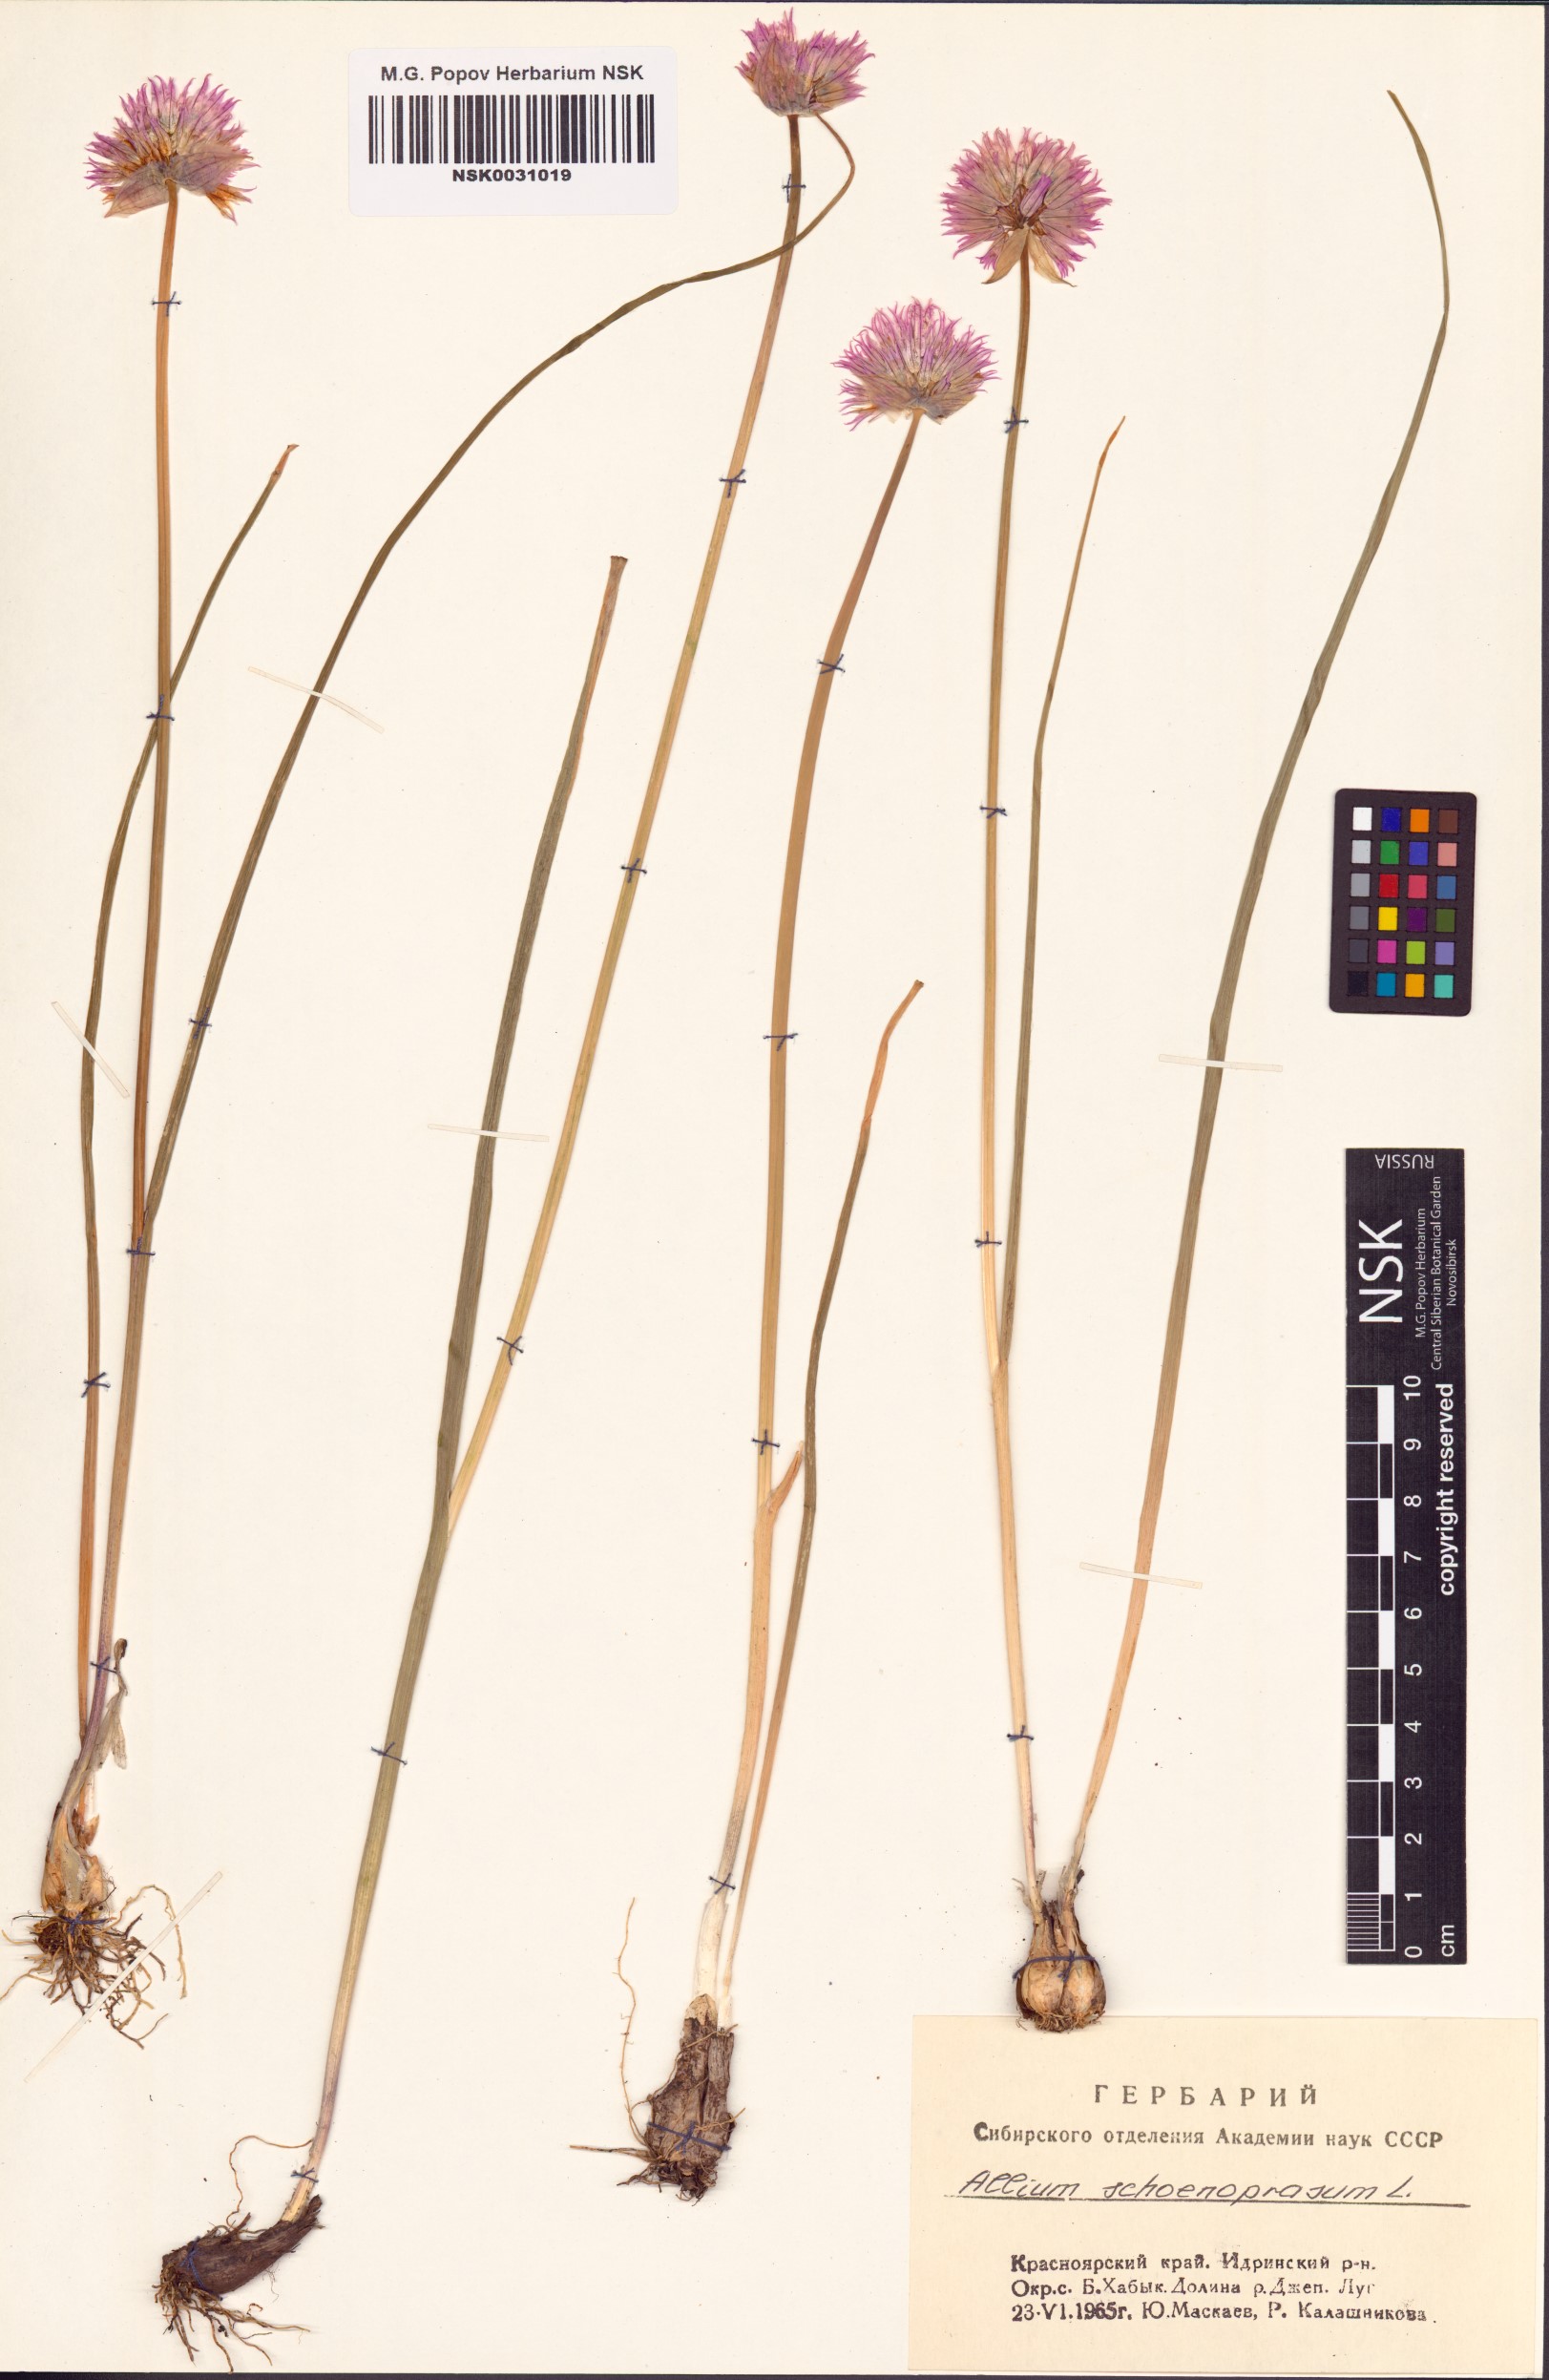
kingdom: Plantae
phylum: Tracheophyta
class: Liliopsida
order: Asparagales
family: Amaryllidaceae
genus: Allium
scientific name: Allium schoenoprasum
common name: Chives
